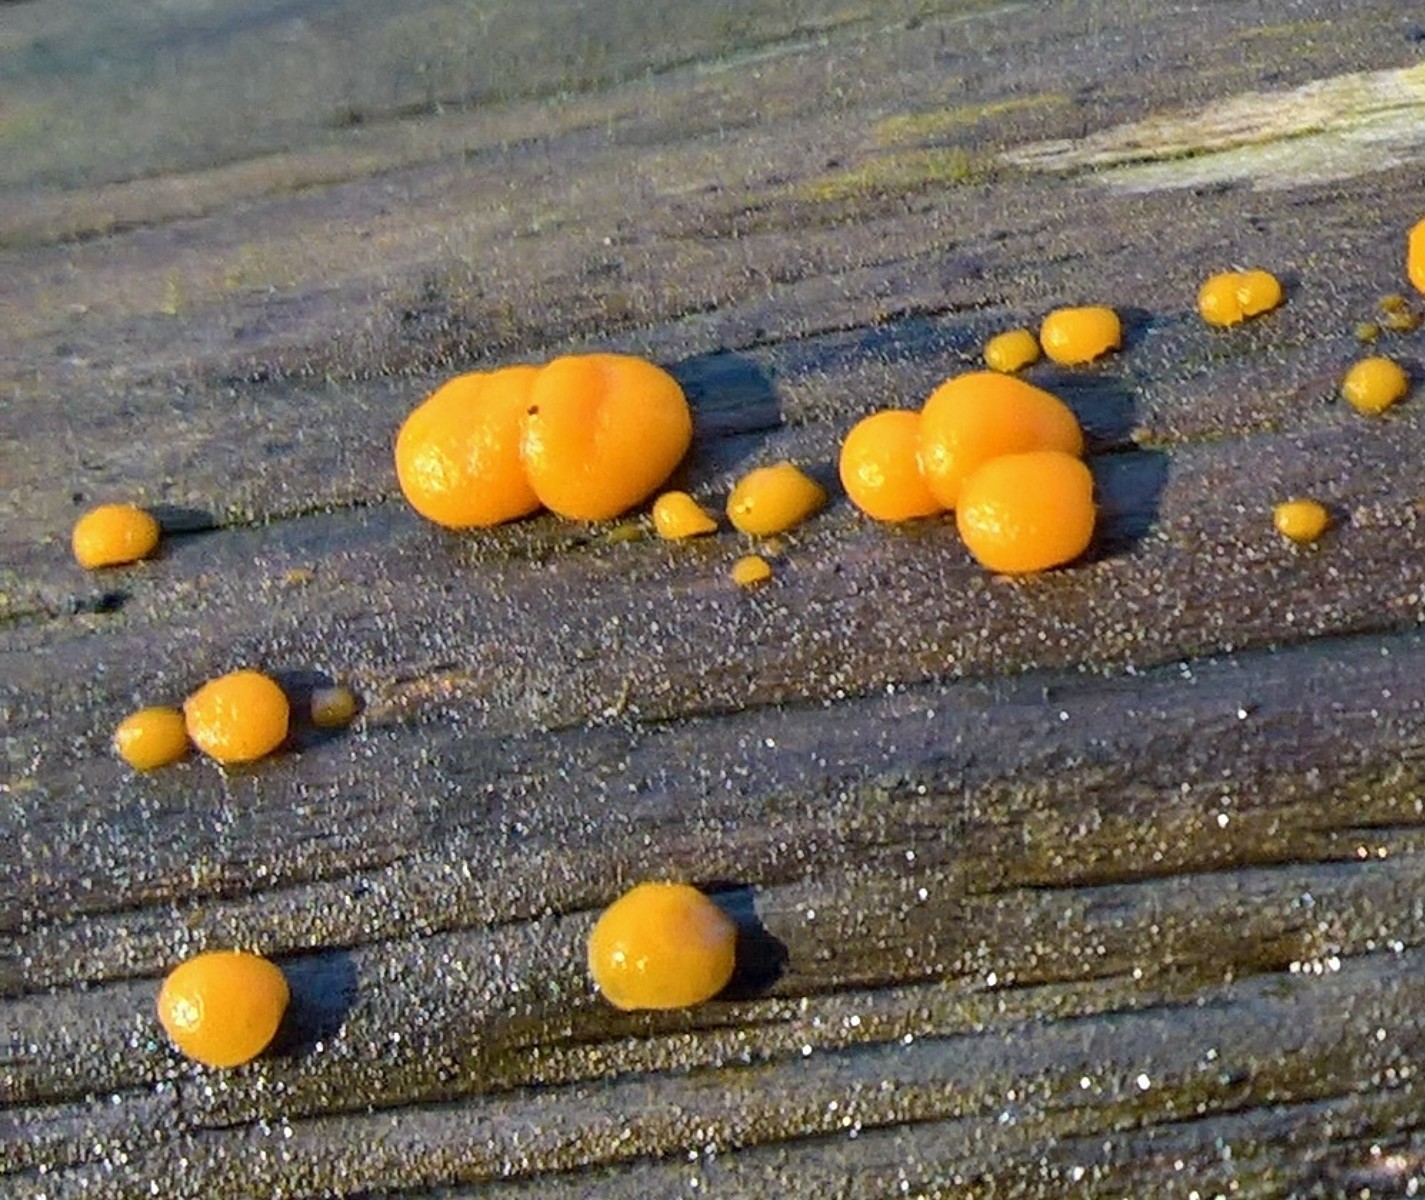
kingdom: Fungi
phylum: Basidiomycota
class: Dacrymycetes
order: Dacrymycetales
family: Dacrymycetaceae
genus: Dacrymyces
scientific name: Dacrymyces stillatus
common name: almindelig tåresvamp
